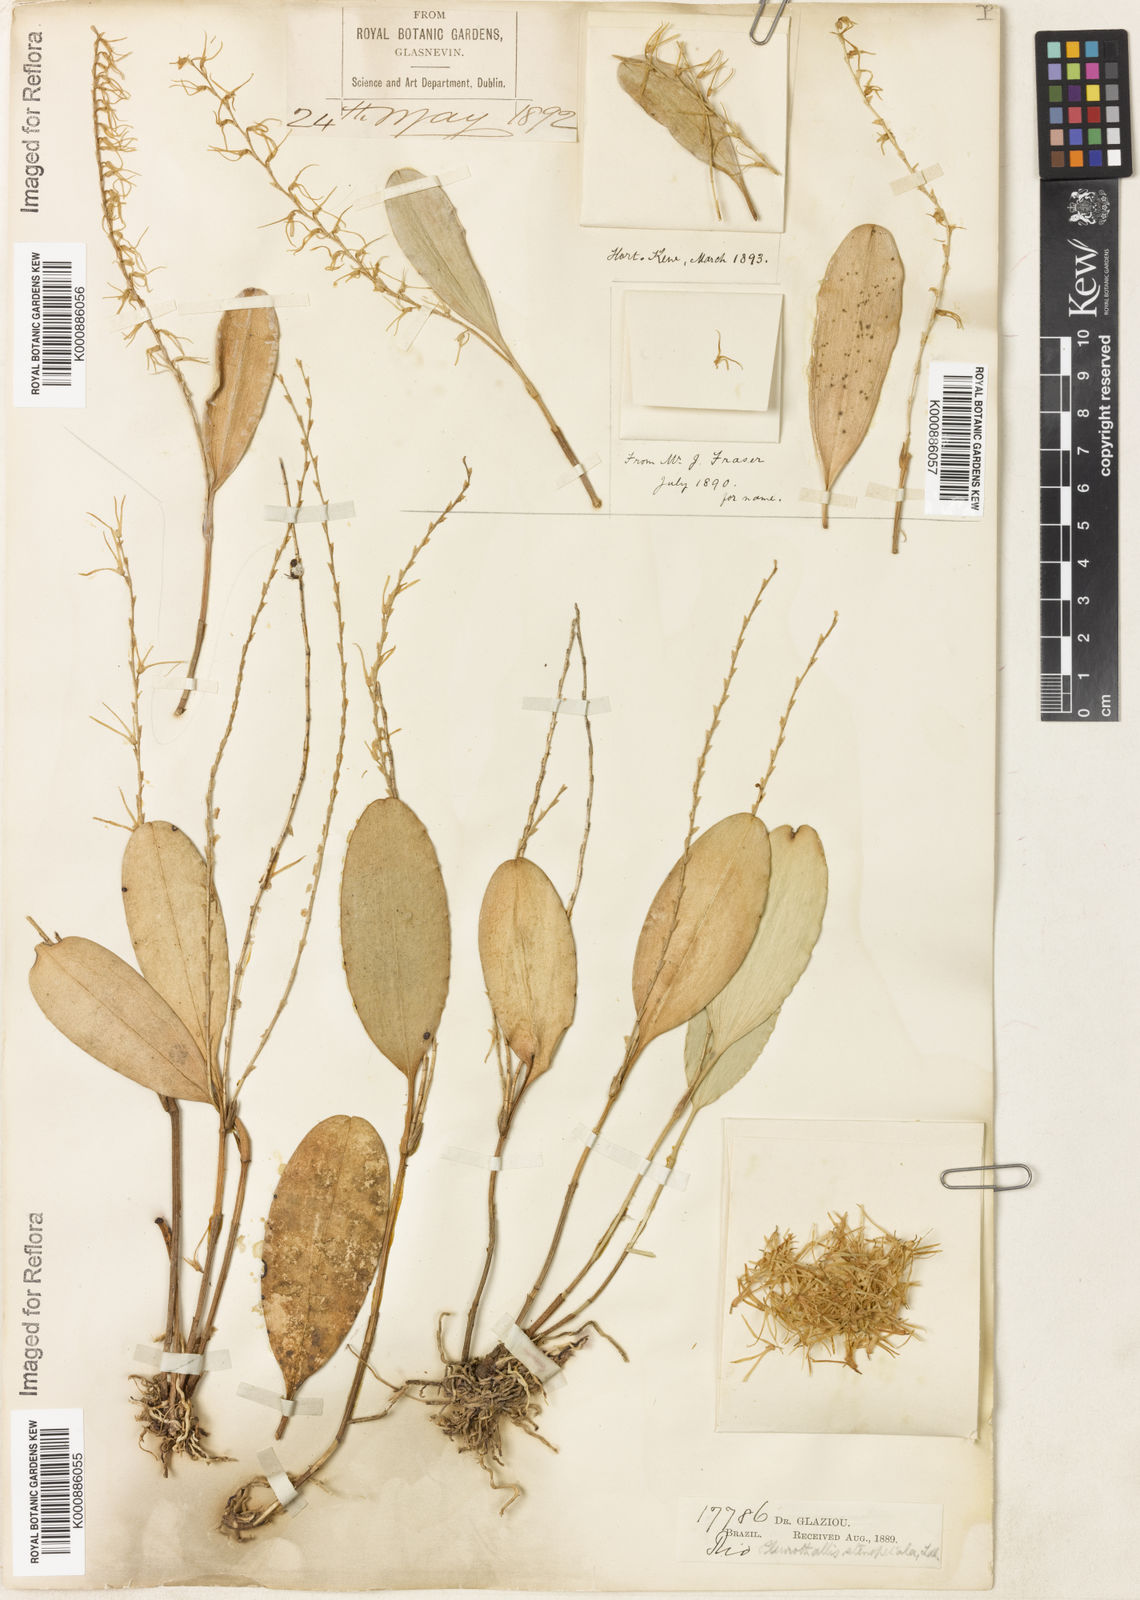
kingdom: Plantae
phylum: Tracheophyta
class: Liliopsida
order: Asparagales
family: Orchidaceae
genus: Stelis
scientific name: Stelis sclerophylla
